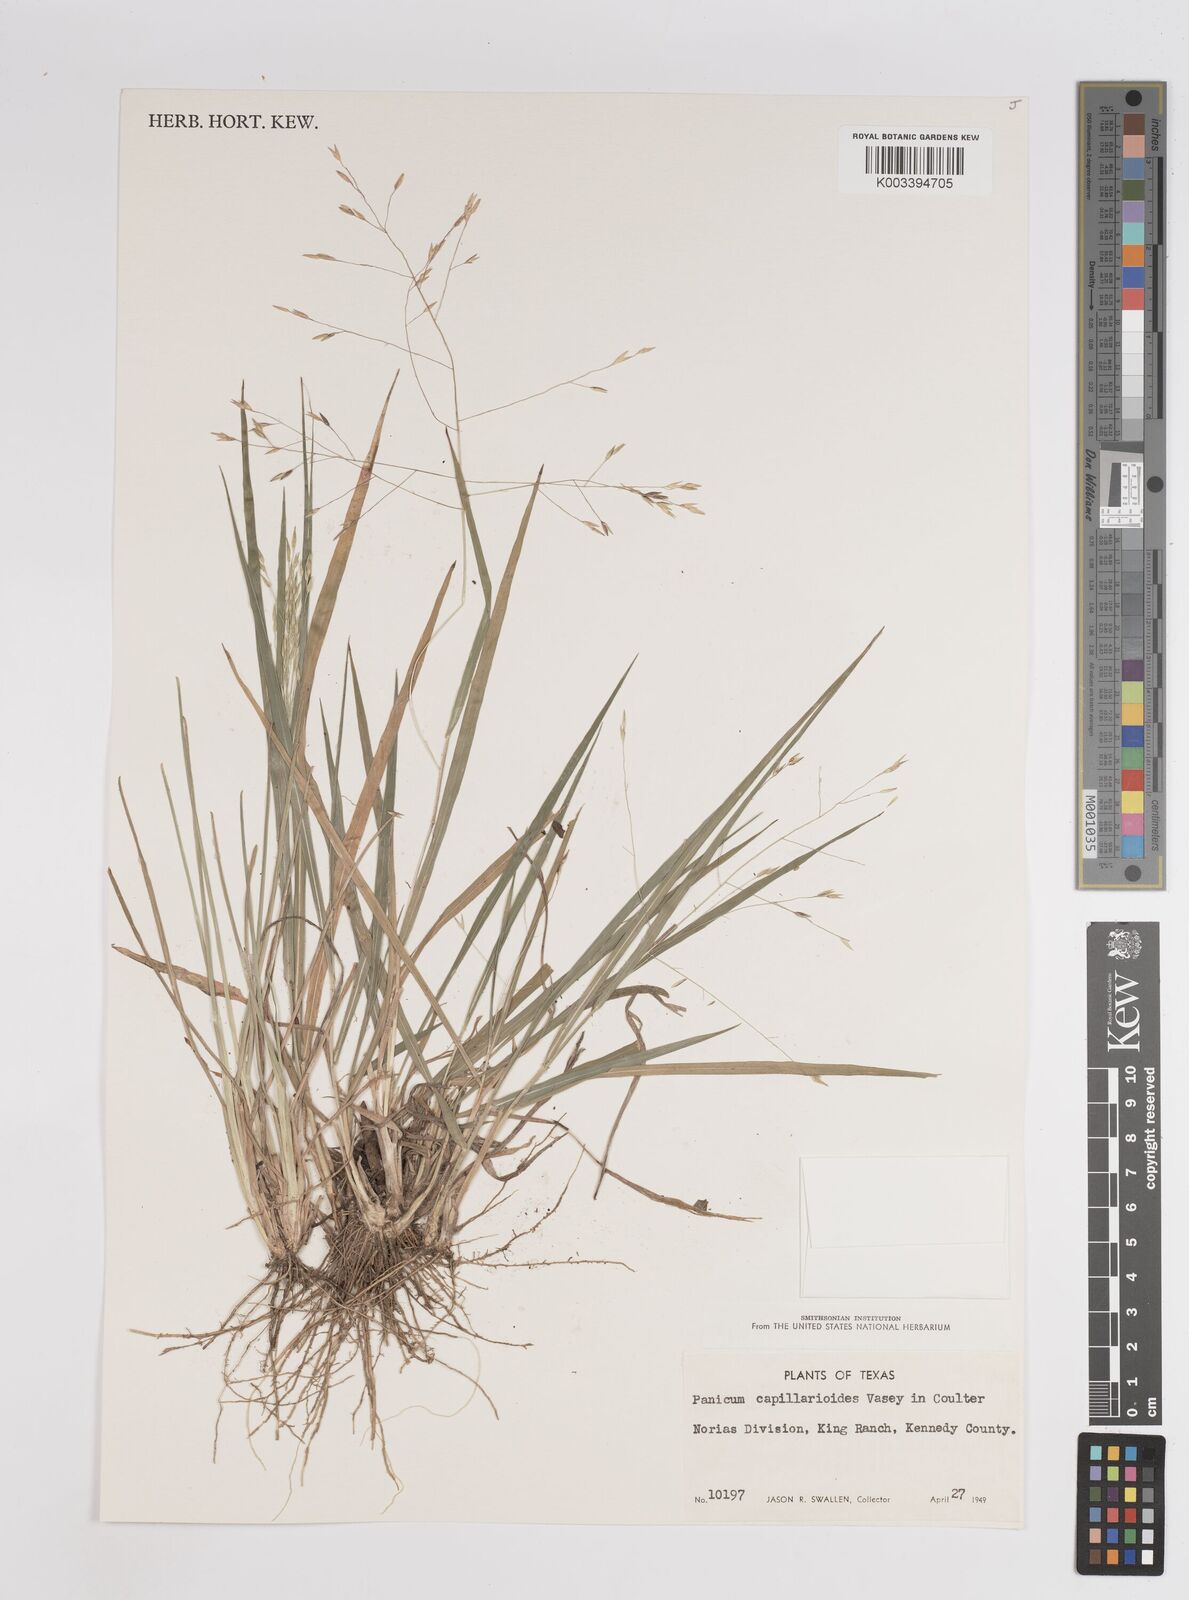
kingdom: Plantae
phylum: Tracheophyta
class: Liliopsida
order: Poales
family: Poaceae
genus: Panicum
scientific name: Panicum capillarioides
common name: Long-beak witchgrass
